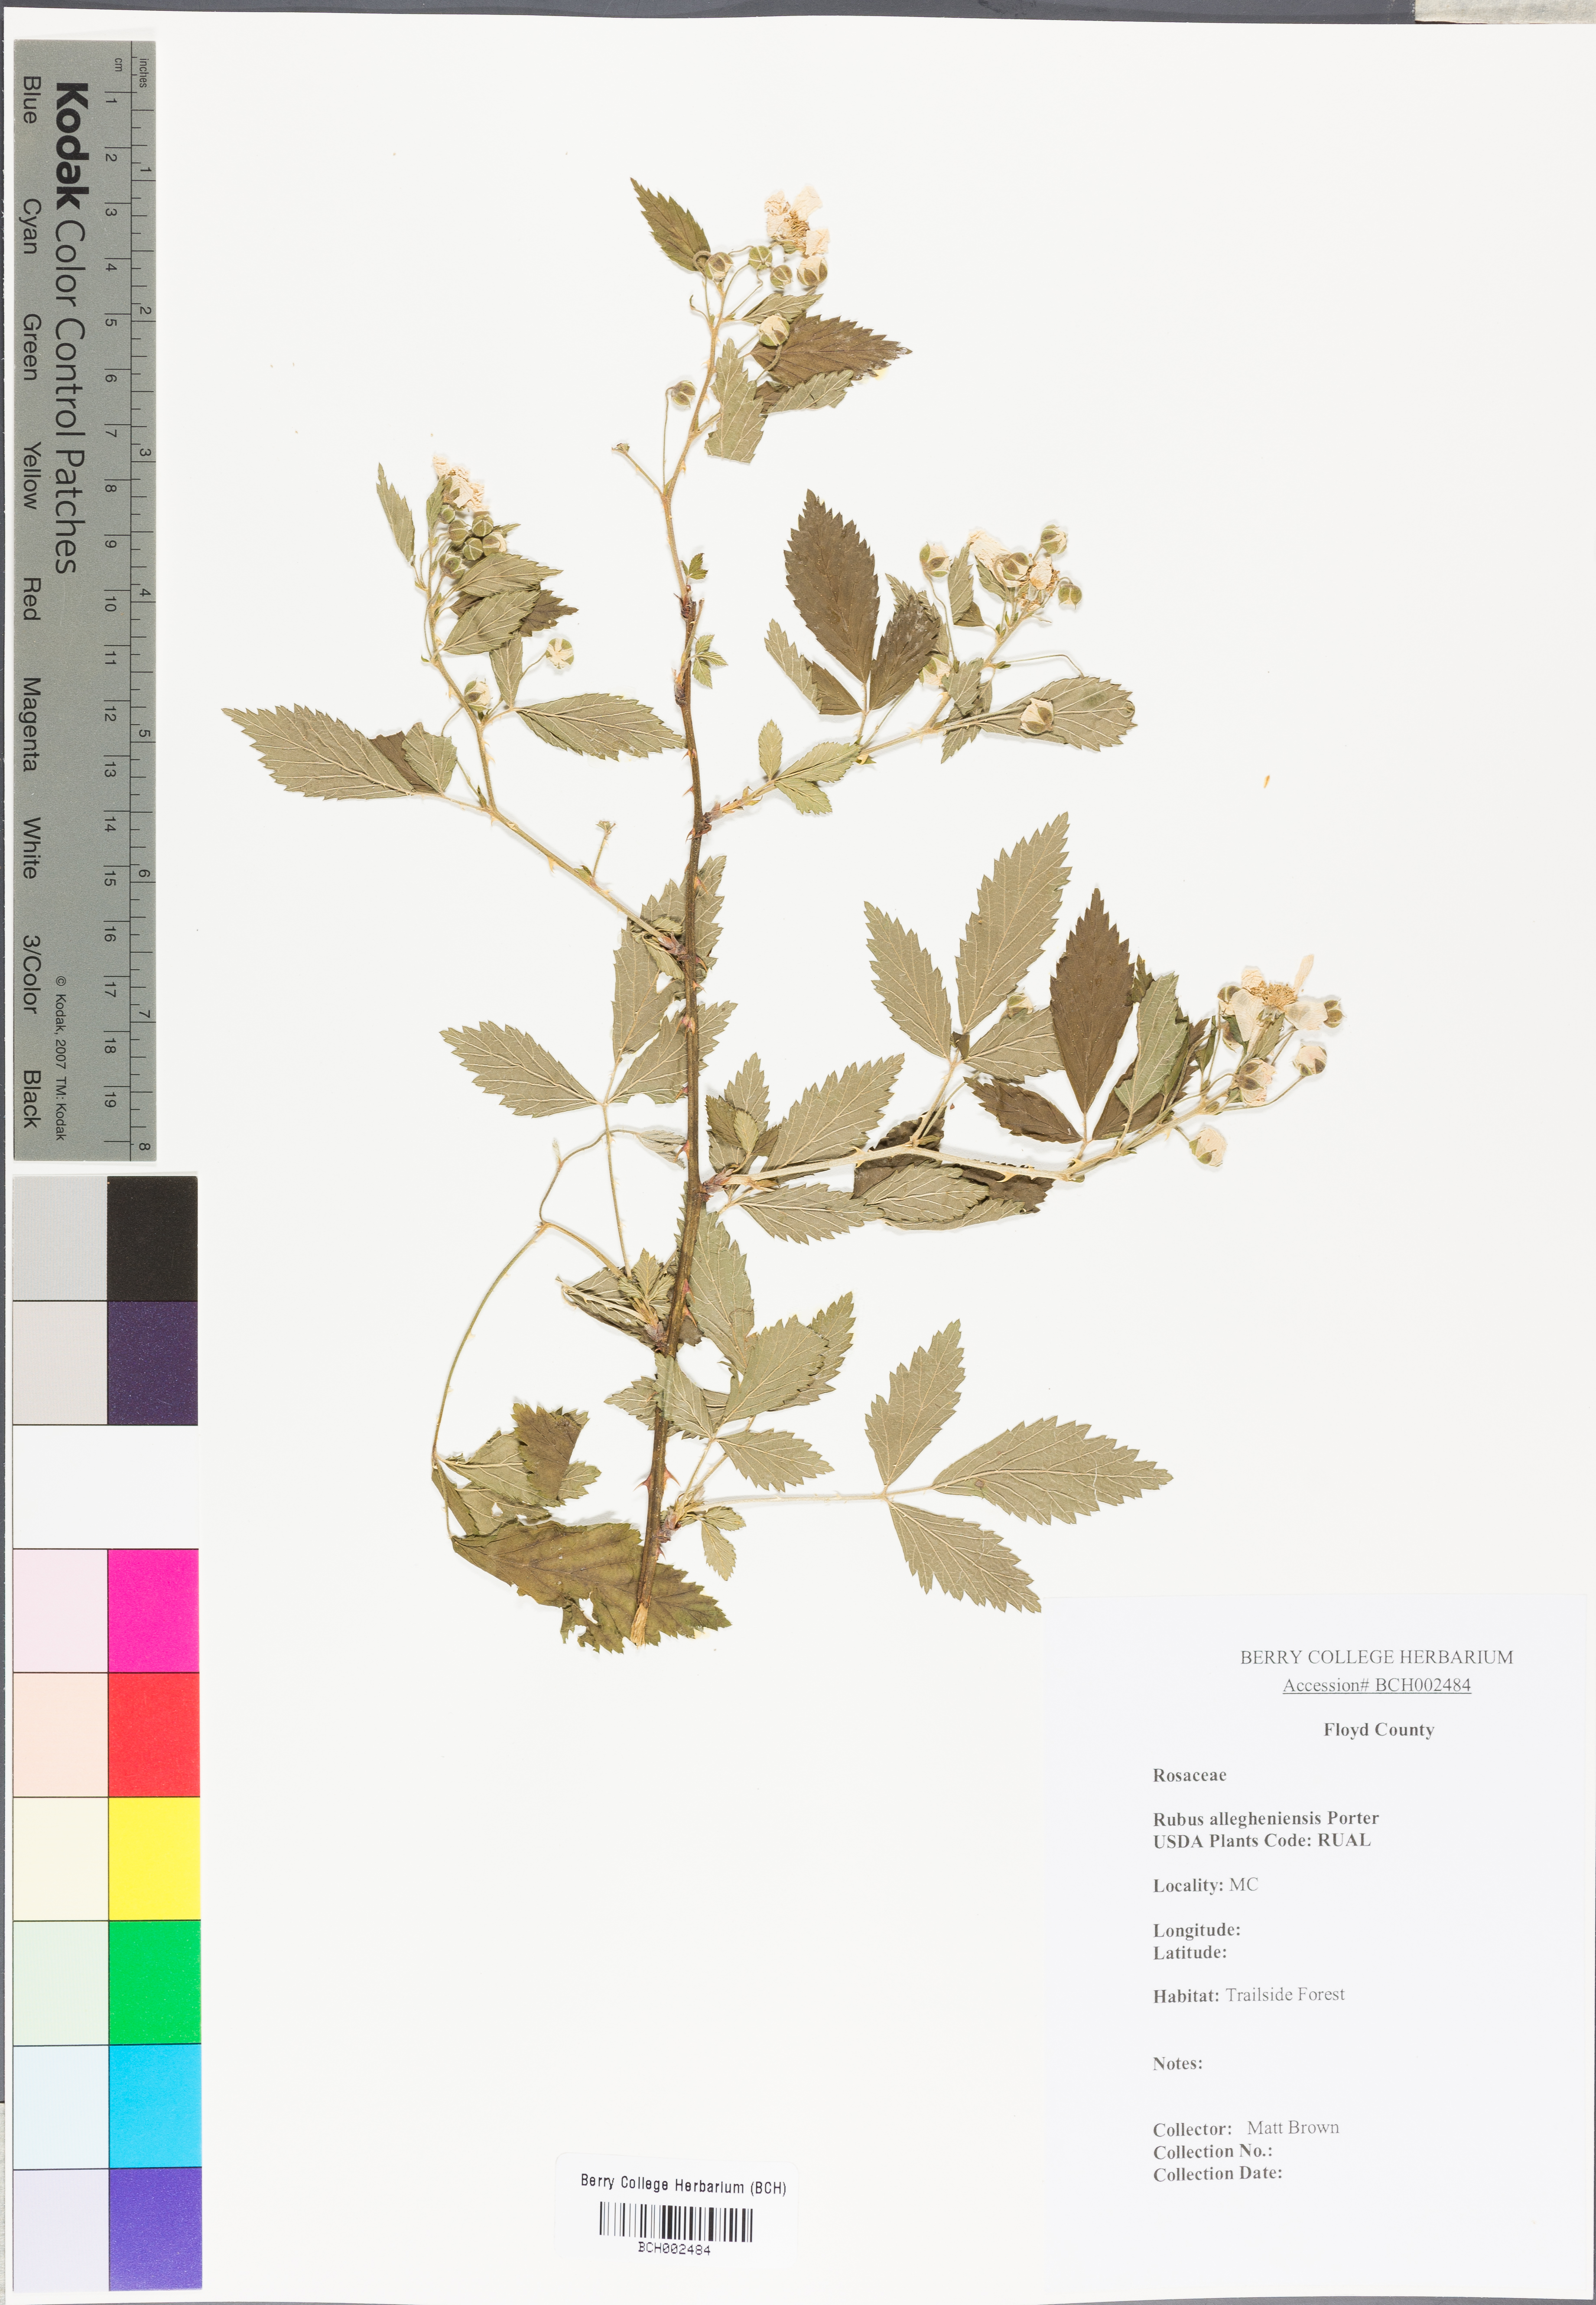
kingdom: Plantae
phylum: Tracheophyta
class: Magnoliopsida
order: Rosales
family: Rosaceae
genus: Rubus
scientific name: Rubus allegheniensis
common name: Allegheny blackberry
